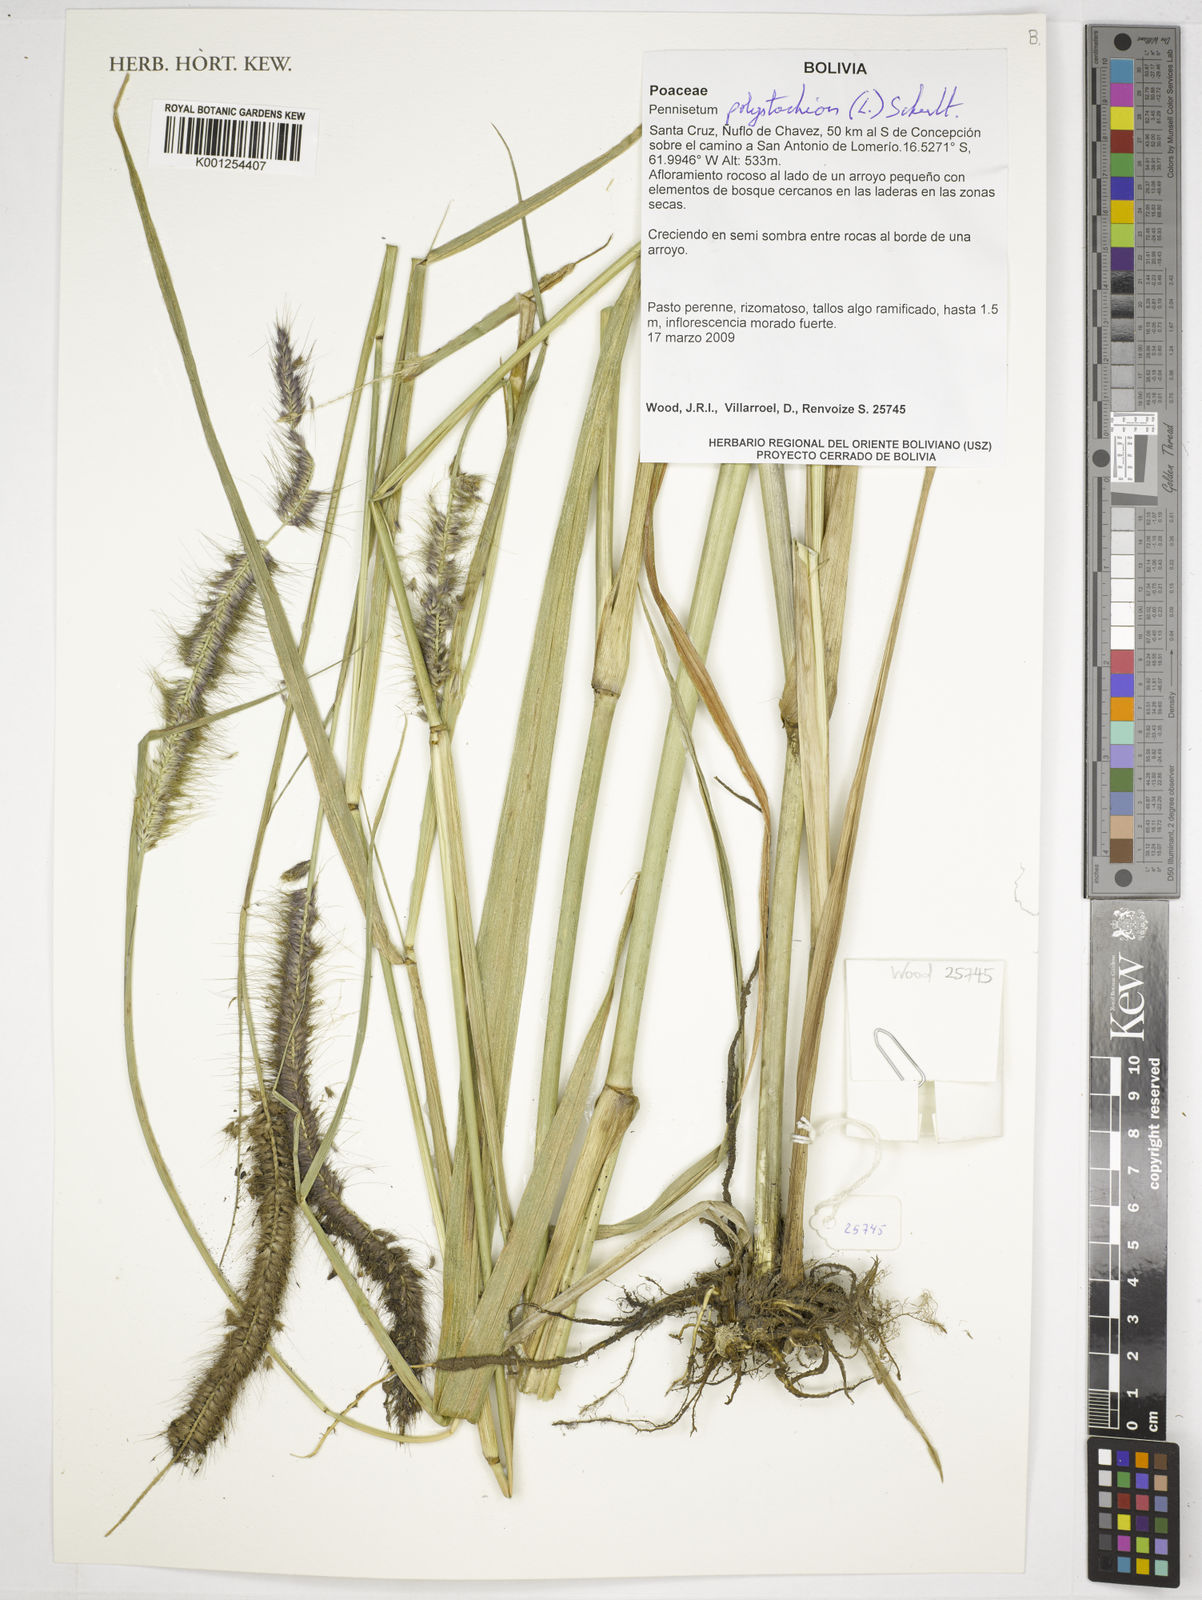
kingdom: Plantae
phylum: Tracheophyta
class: Liliopsida
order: Poales
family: Poaceae
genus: Setaria
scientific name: Setaria parviflora
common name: Knotroot bristle-grass
